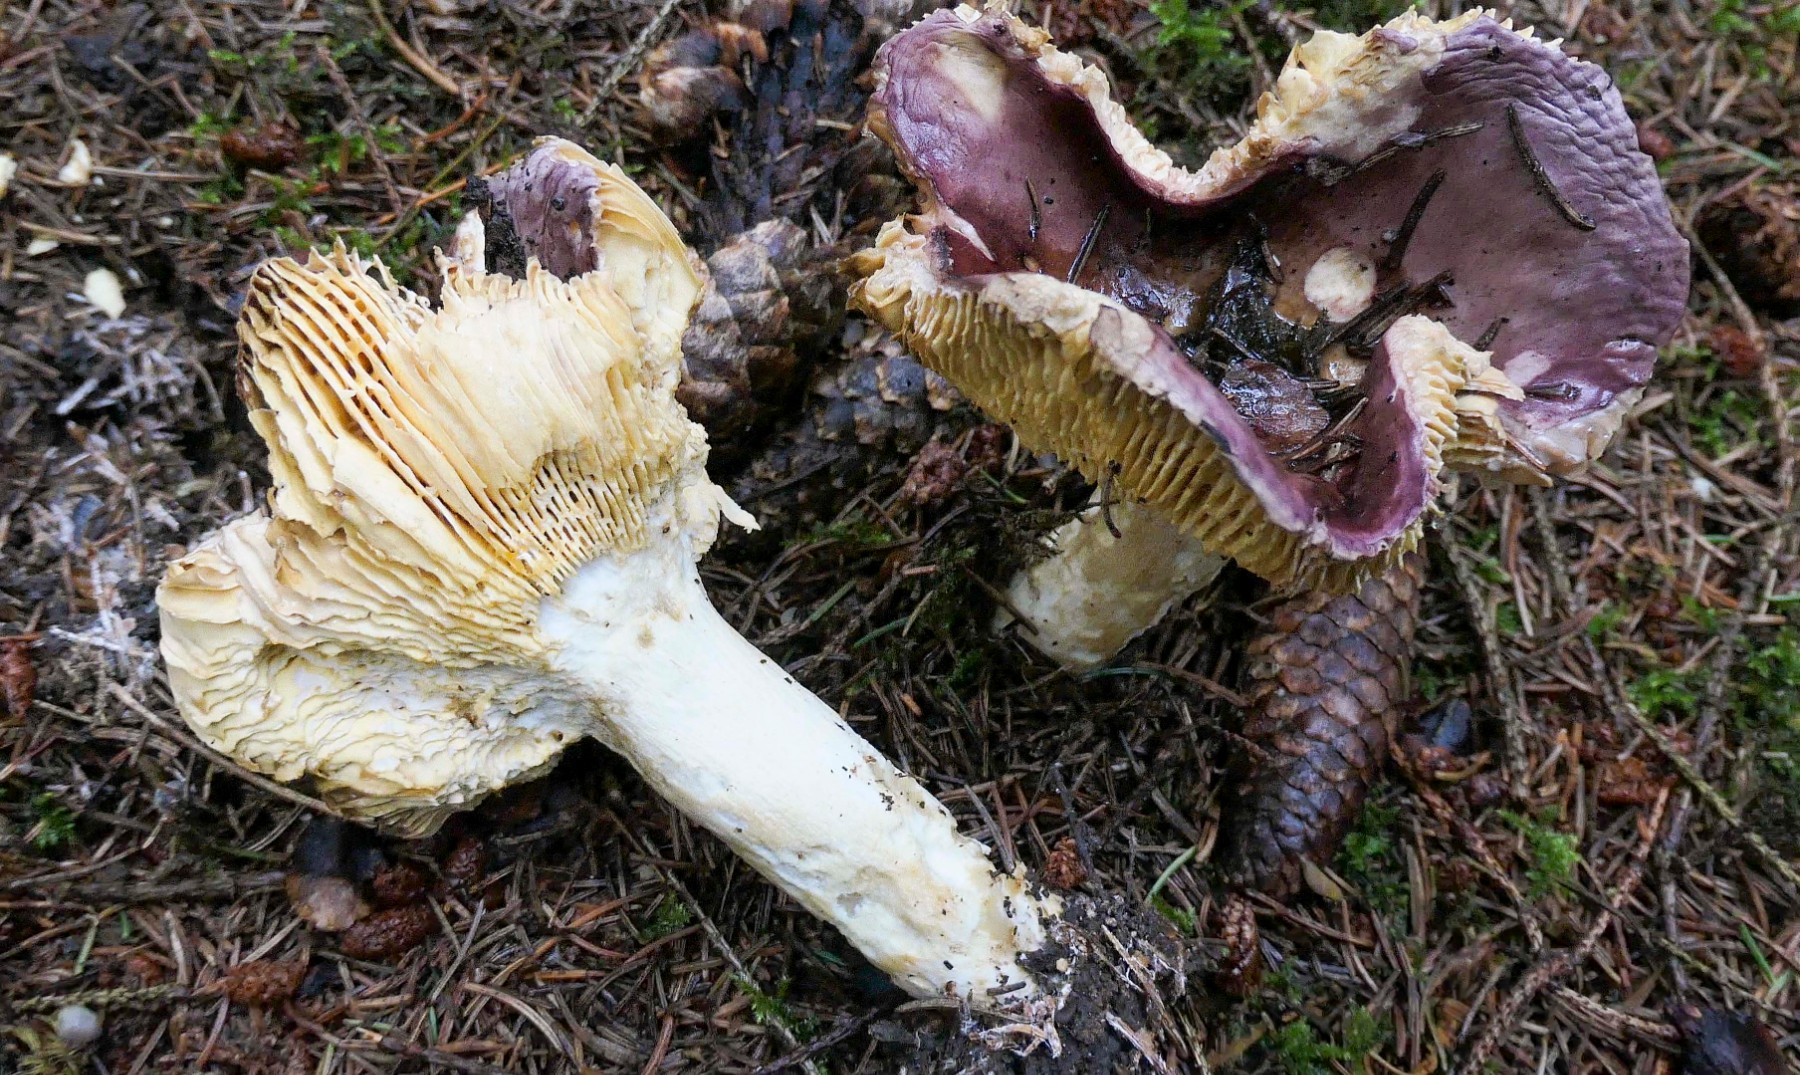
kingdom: Fungi
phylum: Basidiomycota
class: Agaricomycetes
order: Russulales
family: Russulaceae
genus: Russula
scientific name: Russula integra
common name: mandel-skørhat
